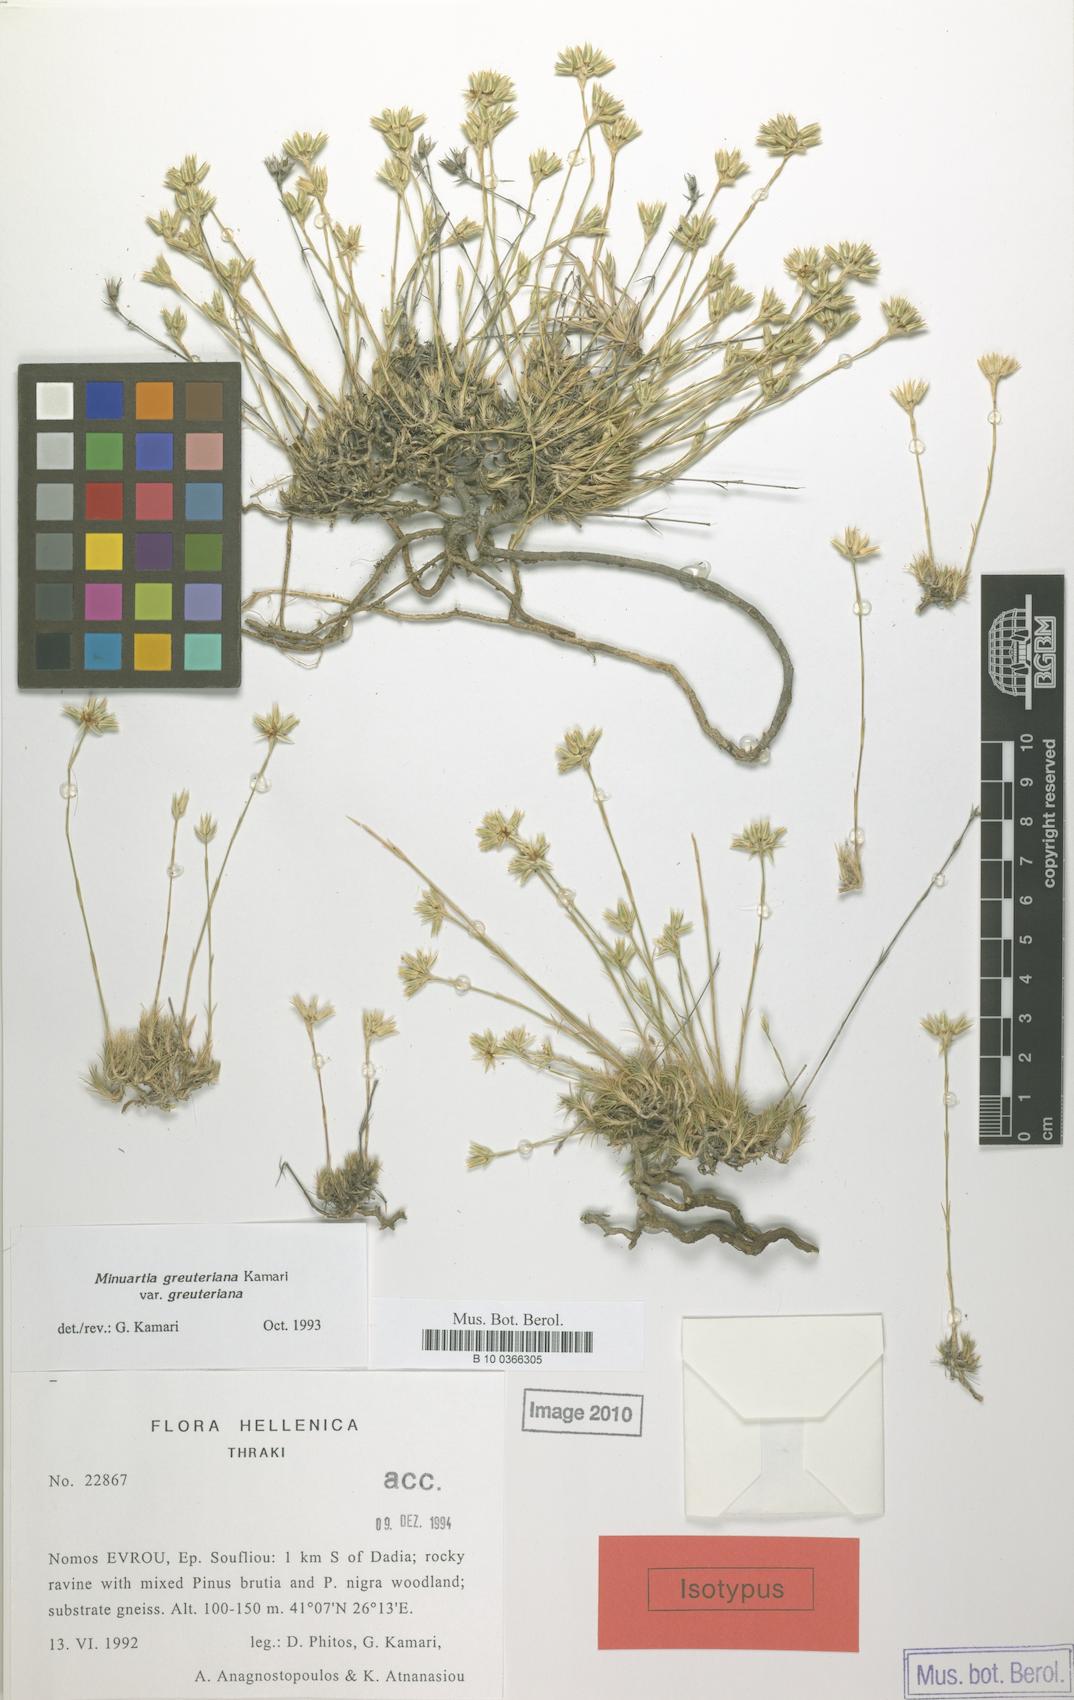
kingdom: Plantae
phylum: Tracheophyta
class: Magnoliopsida
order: Caryophyllales
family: Caryophyllaceae
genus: Minuartia
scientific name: Minuartia greuteriana
